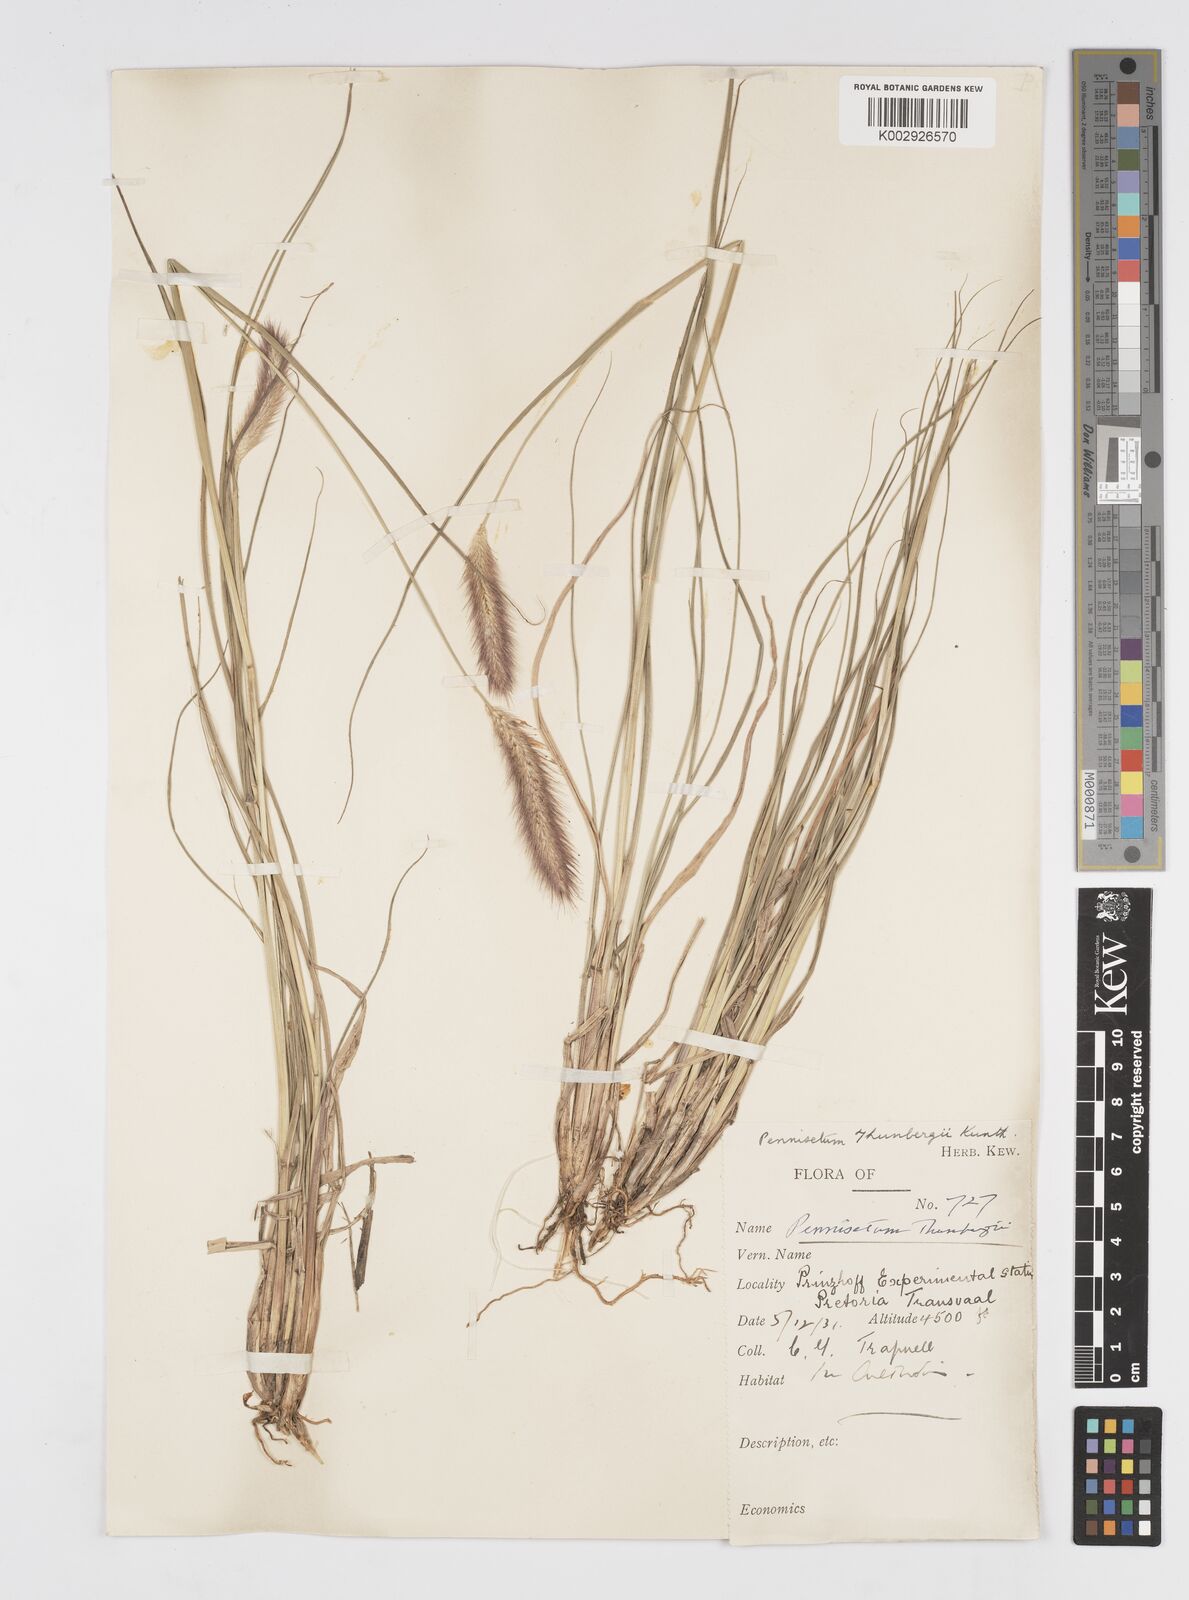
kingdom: Plantae
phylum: Tracheophyta
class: Liliopsida
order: Poales
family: Poaceae
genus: Cenchrus
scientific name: Cenchrus geniculatus
